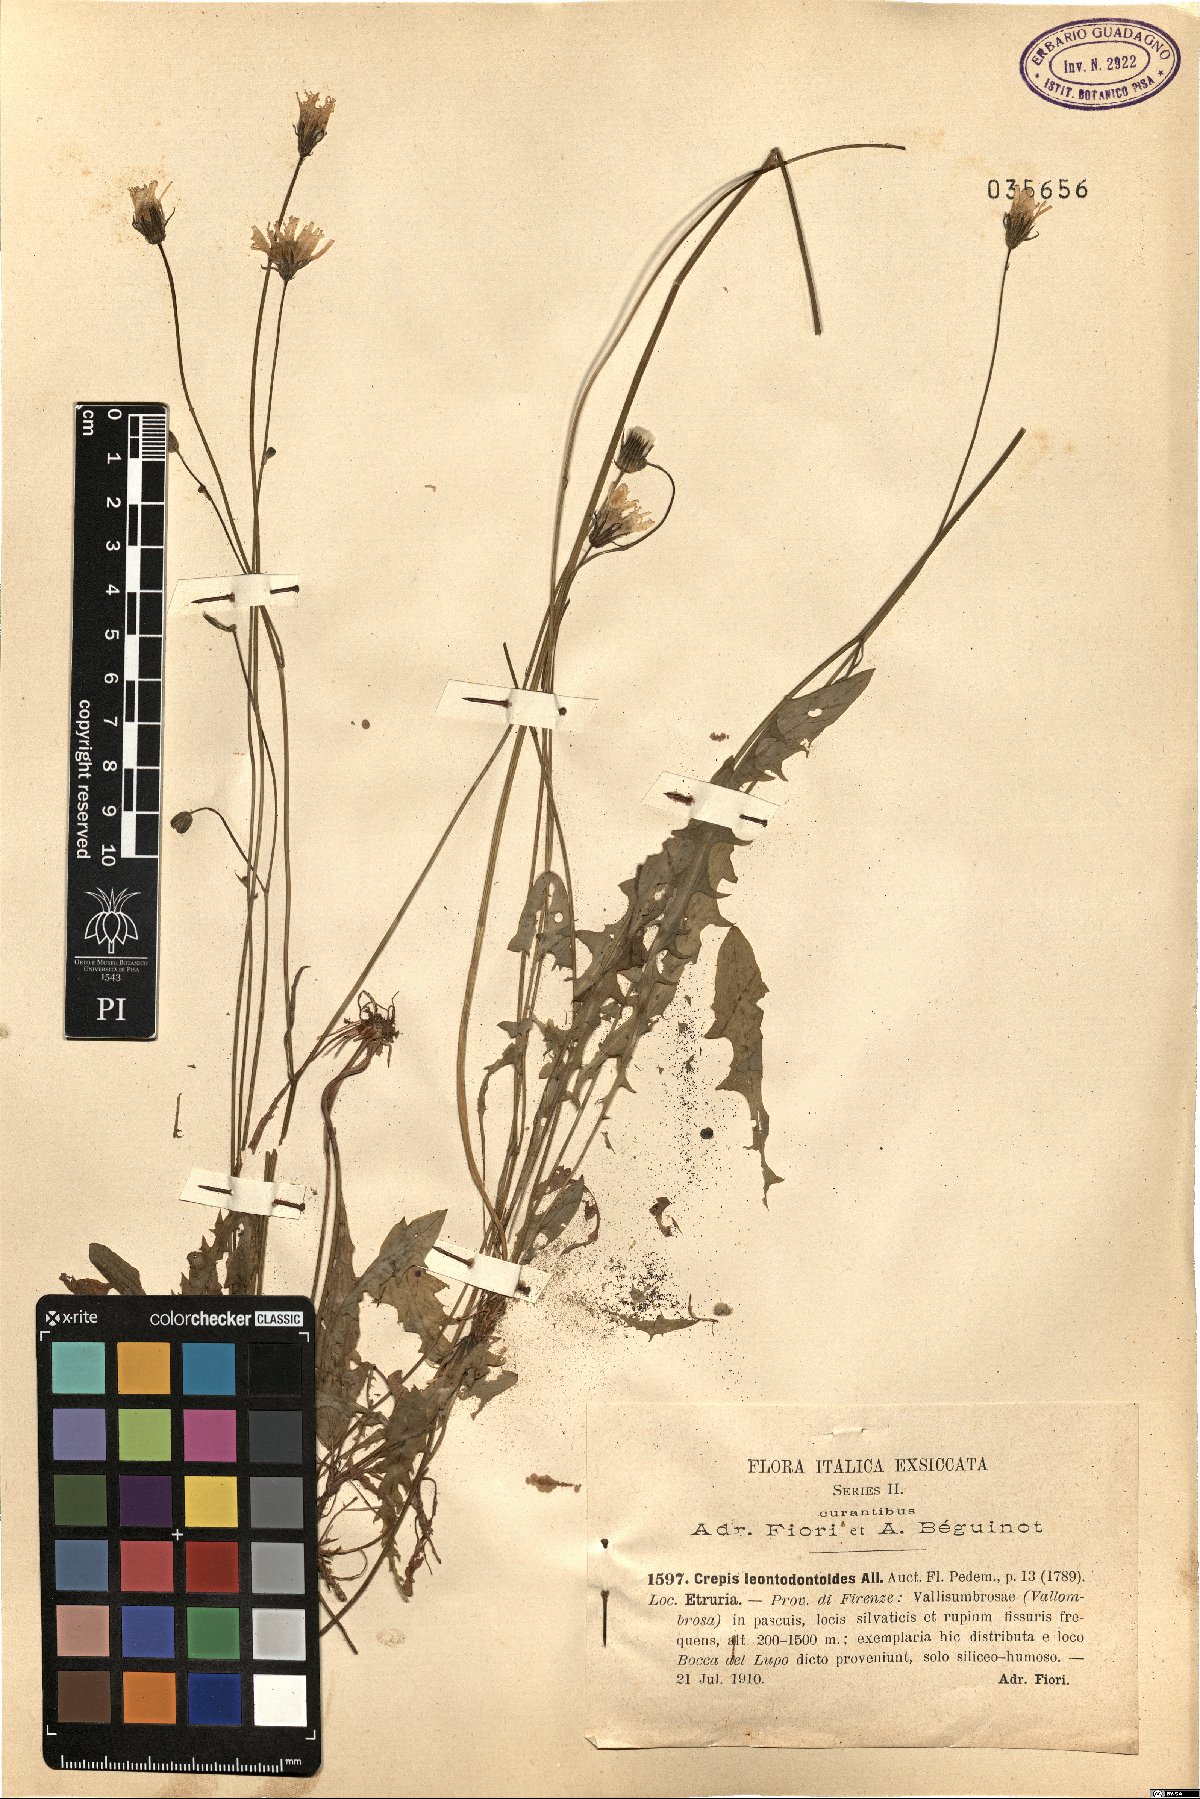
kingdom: Plantae
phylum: Tracheophyta
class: Magnoliopsida
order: Asterales
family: Asteraceae
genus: Crepis
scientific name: Crepis leontodontoides
